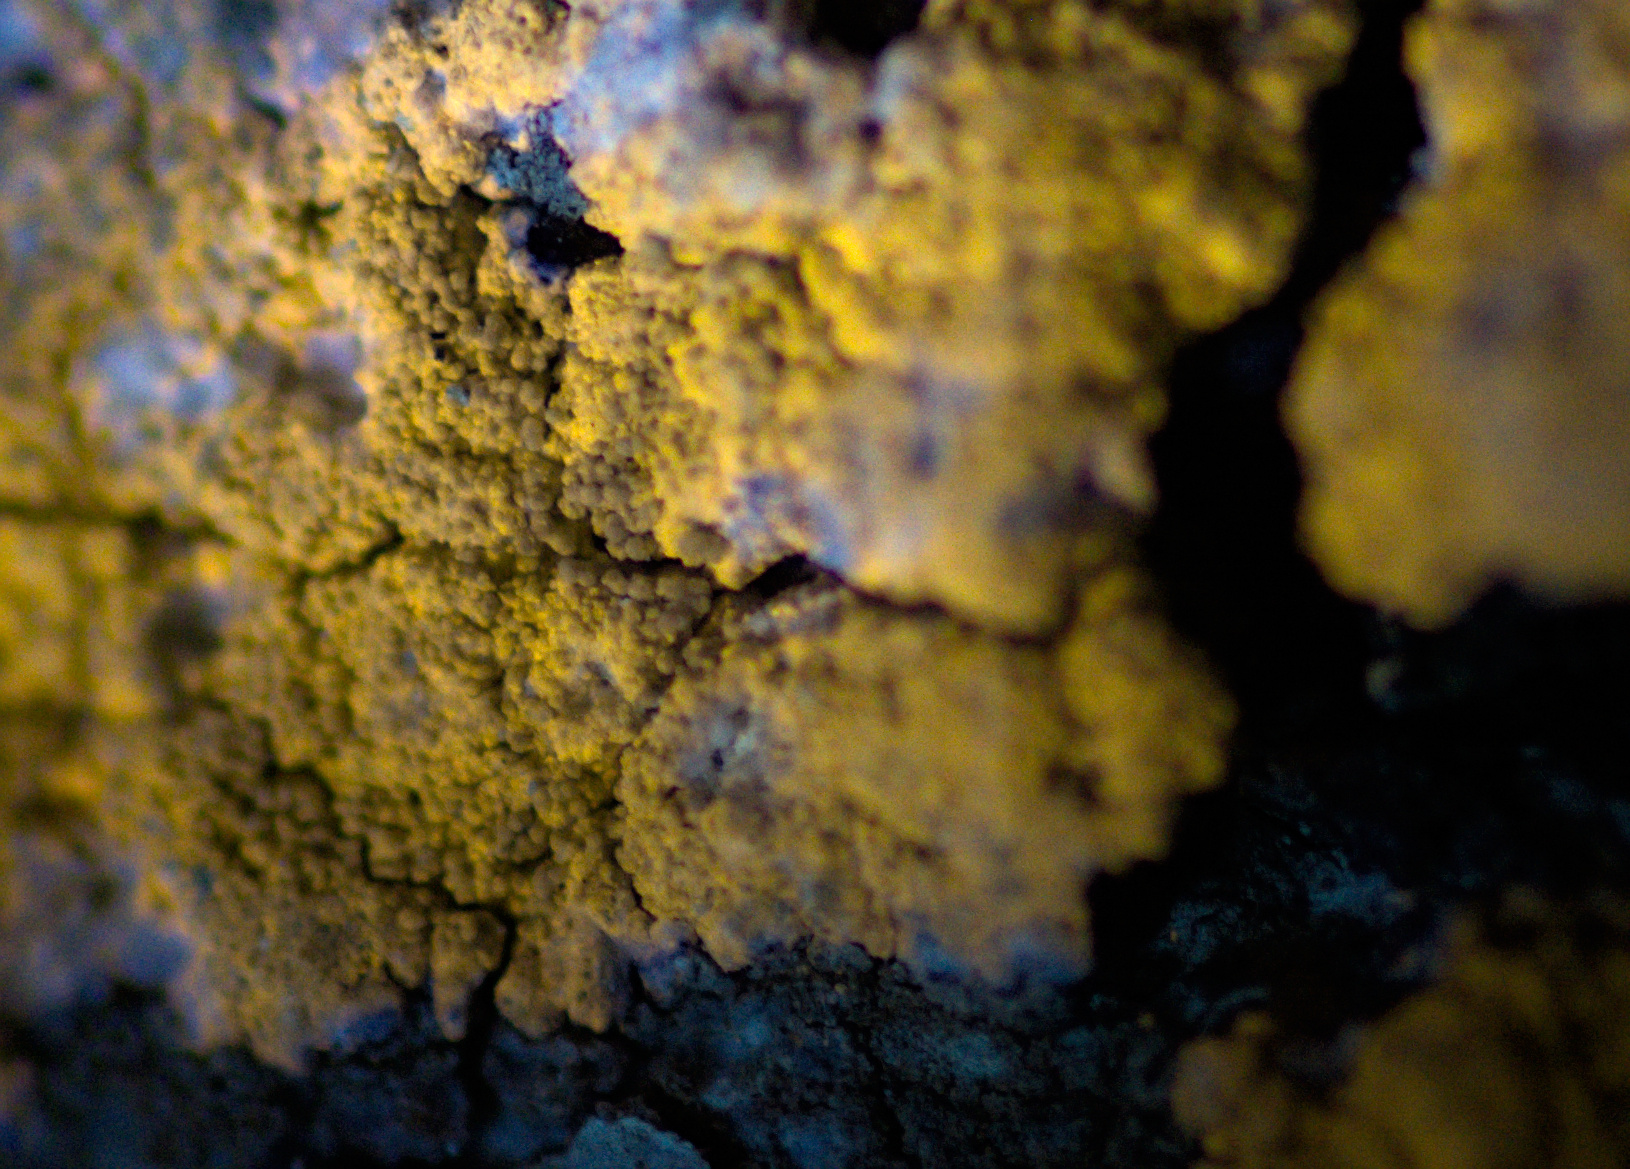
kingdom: Fungi
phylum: Ascomycota
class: Lecanoromycetes
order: Pertusariales
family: Pertusariaceae
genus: Pertusaria
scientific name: Pertusaria flavida
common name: gul prikvortelav
